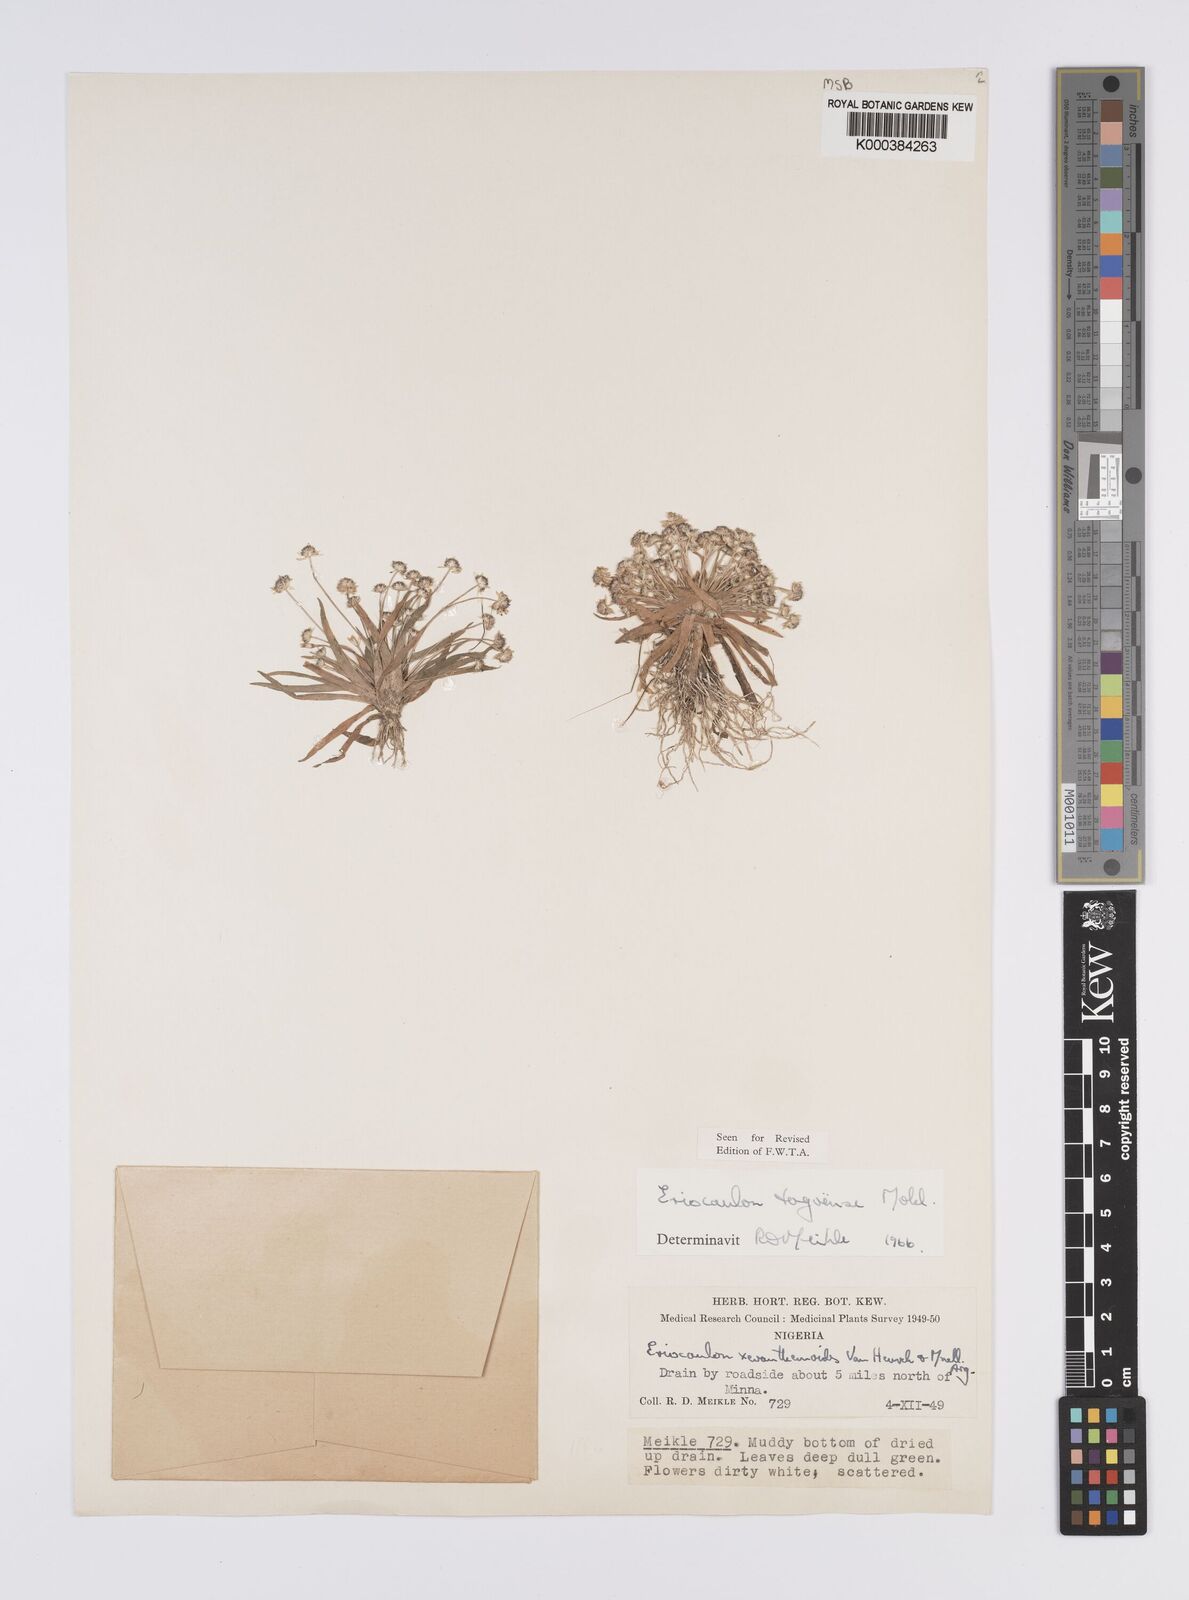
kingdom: Plantae
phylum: Tracheophyta
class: Liliopsida
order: Poales
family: Eriocaulaceae
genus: Eriocaulon
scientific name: Eriocaulon togoense
